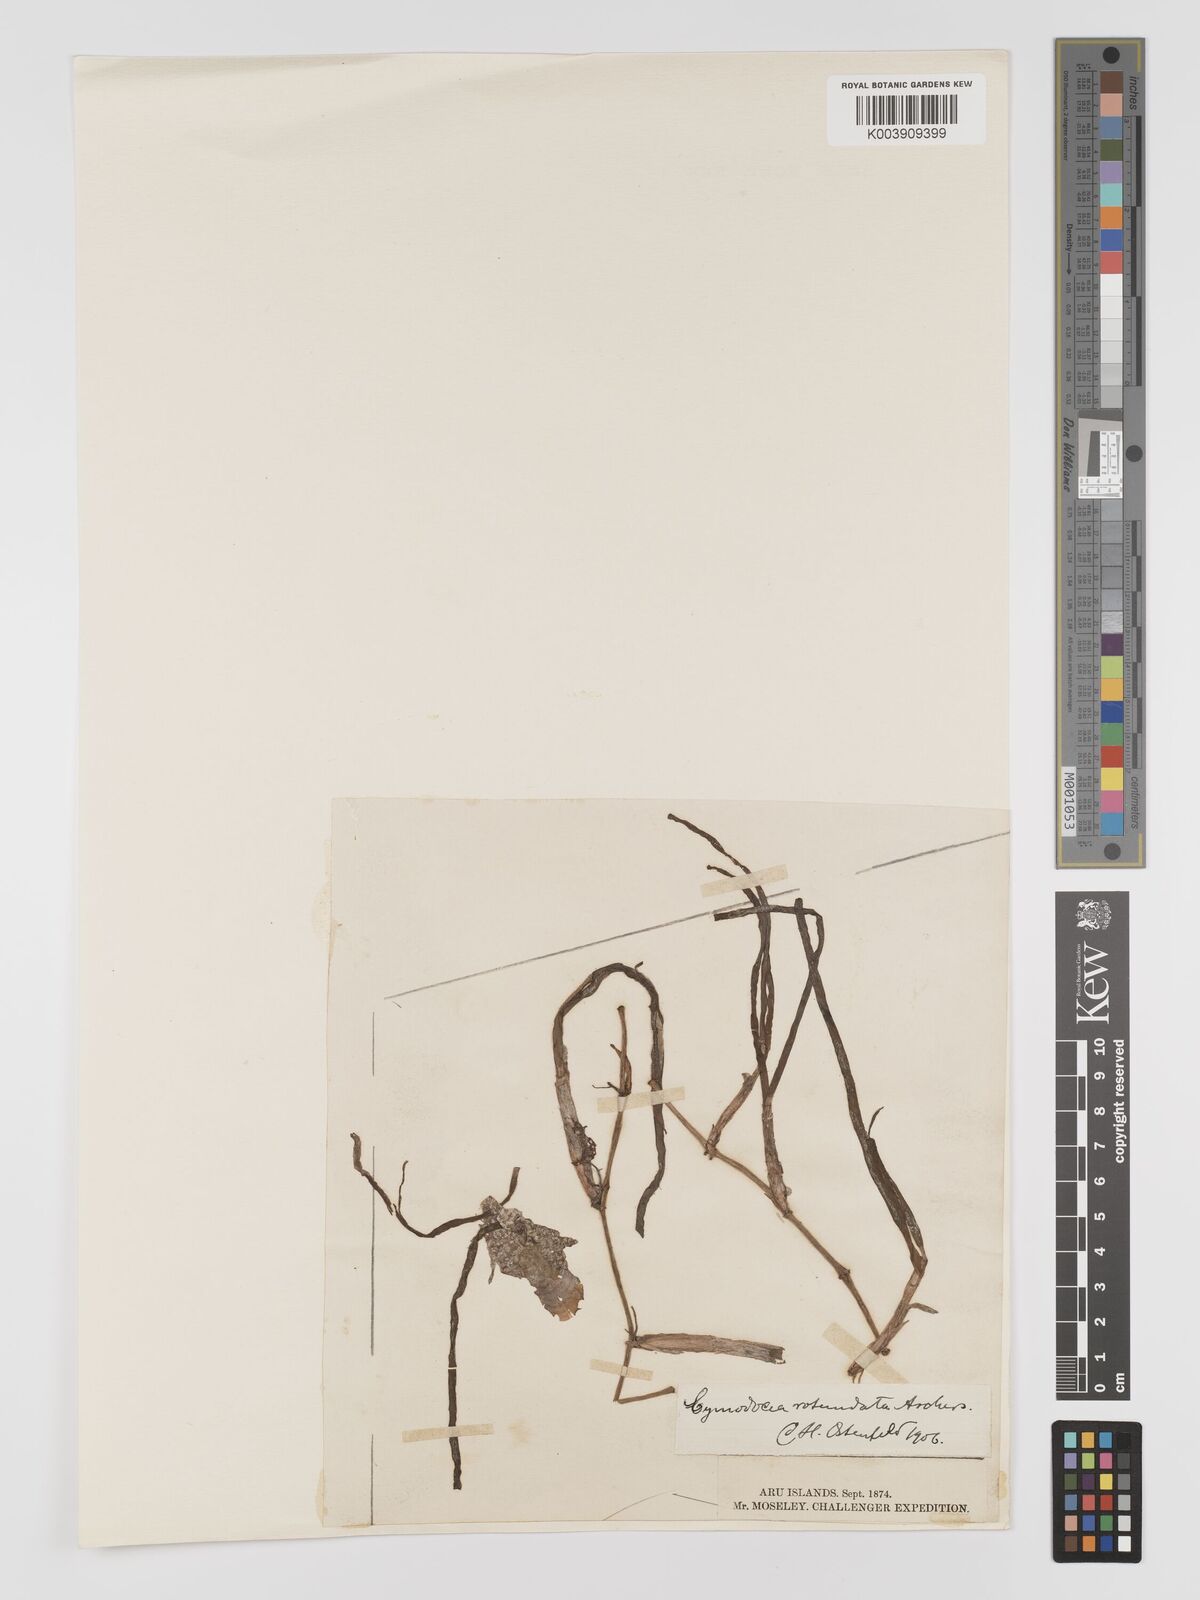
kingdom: Plantae
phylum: Tracheophyta
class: Liliopsida
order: Alismatales
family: Cymodoceaceae
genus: Cymodocea
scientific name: Cymodocea rotundata
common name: Species code: cr
